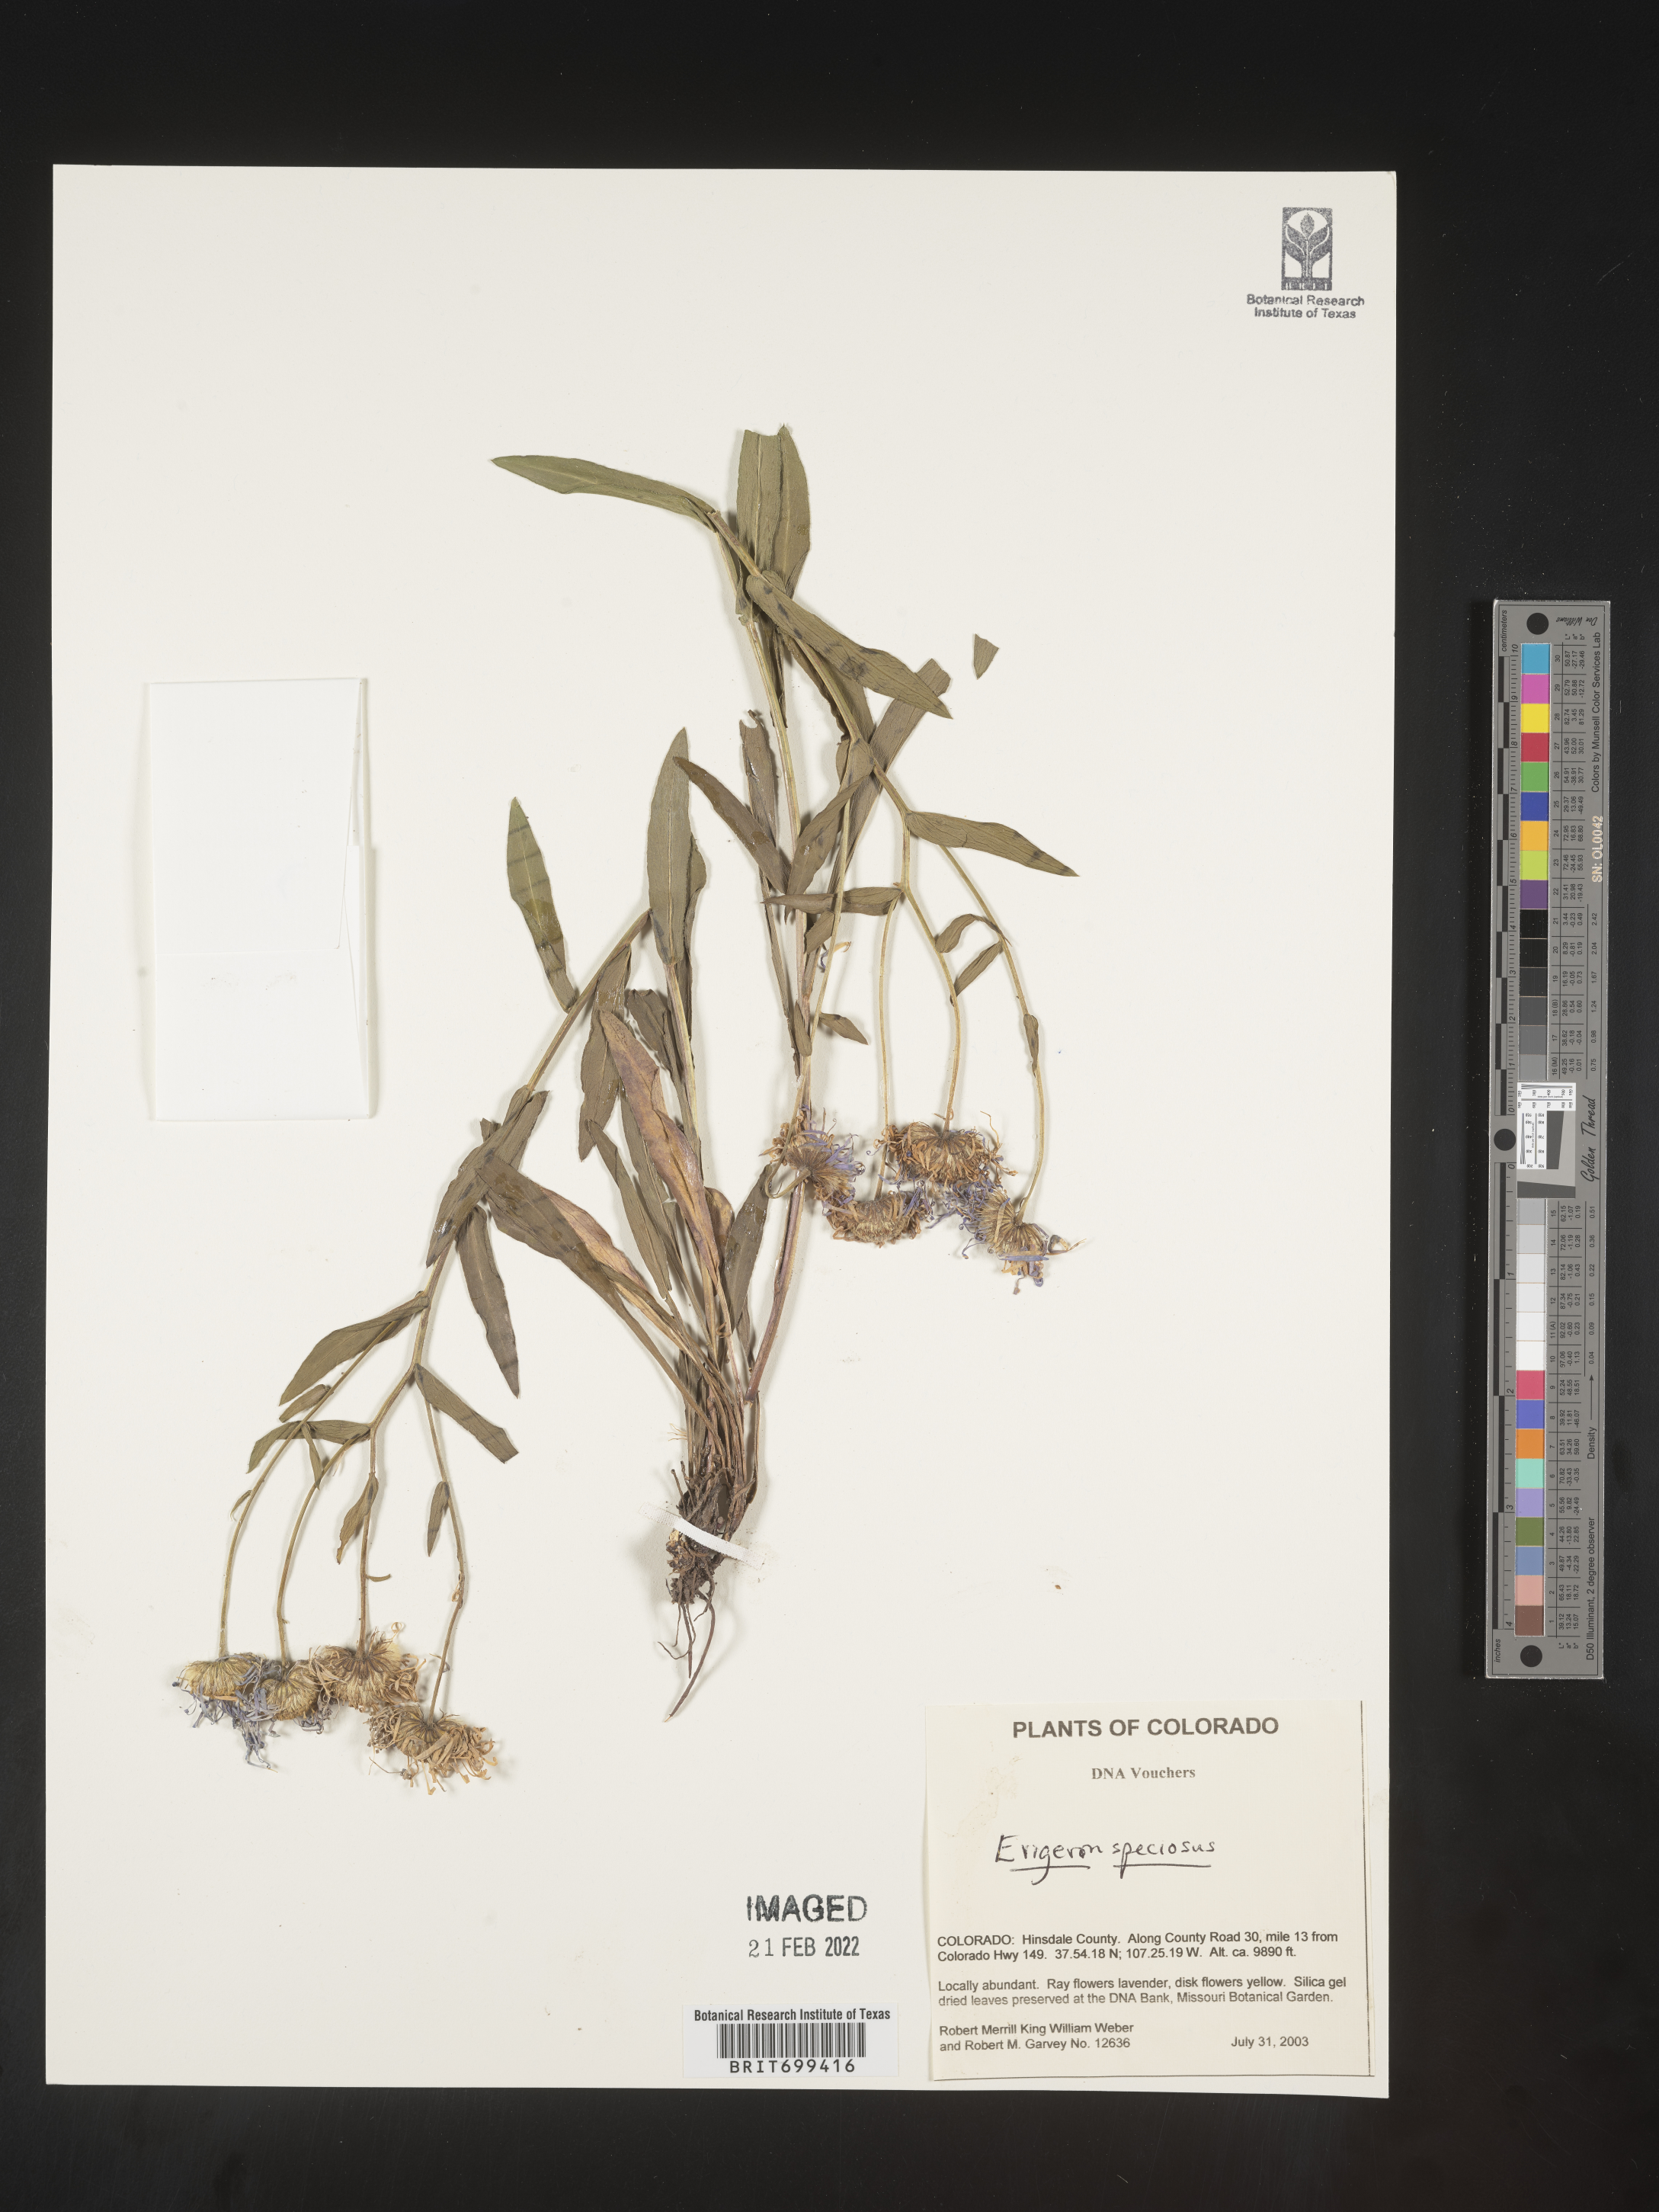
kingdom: Plantae
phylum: Tracheophyta
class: Magnoliopsida
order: Asterales
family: Asteraceae
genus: Erigeron
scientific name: Erigeron speciosus
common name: Aspen fleabane
